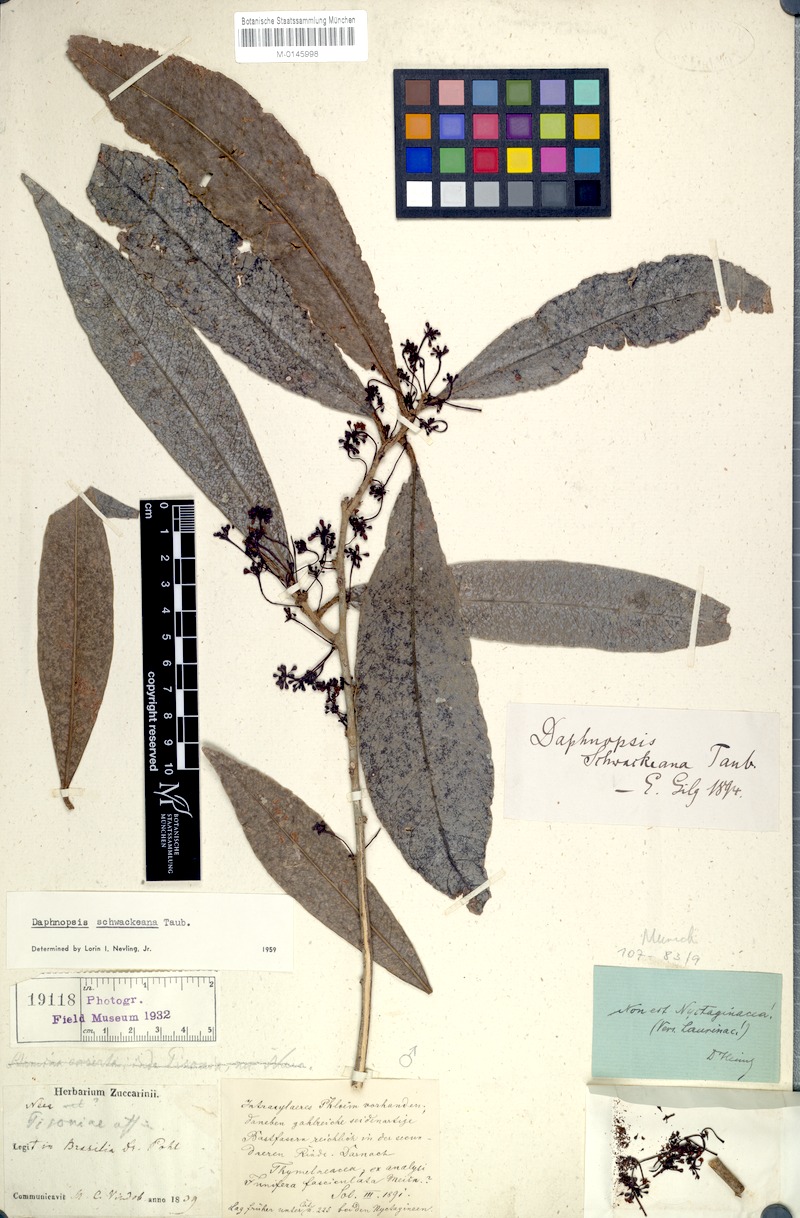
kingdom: Plantae
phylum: Tracheophyta
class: Magnoliopsida
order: Malvales
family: Thymelaeaceae
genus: Daphnopsis
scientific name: Daphnopsis schwackeana
